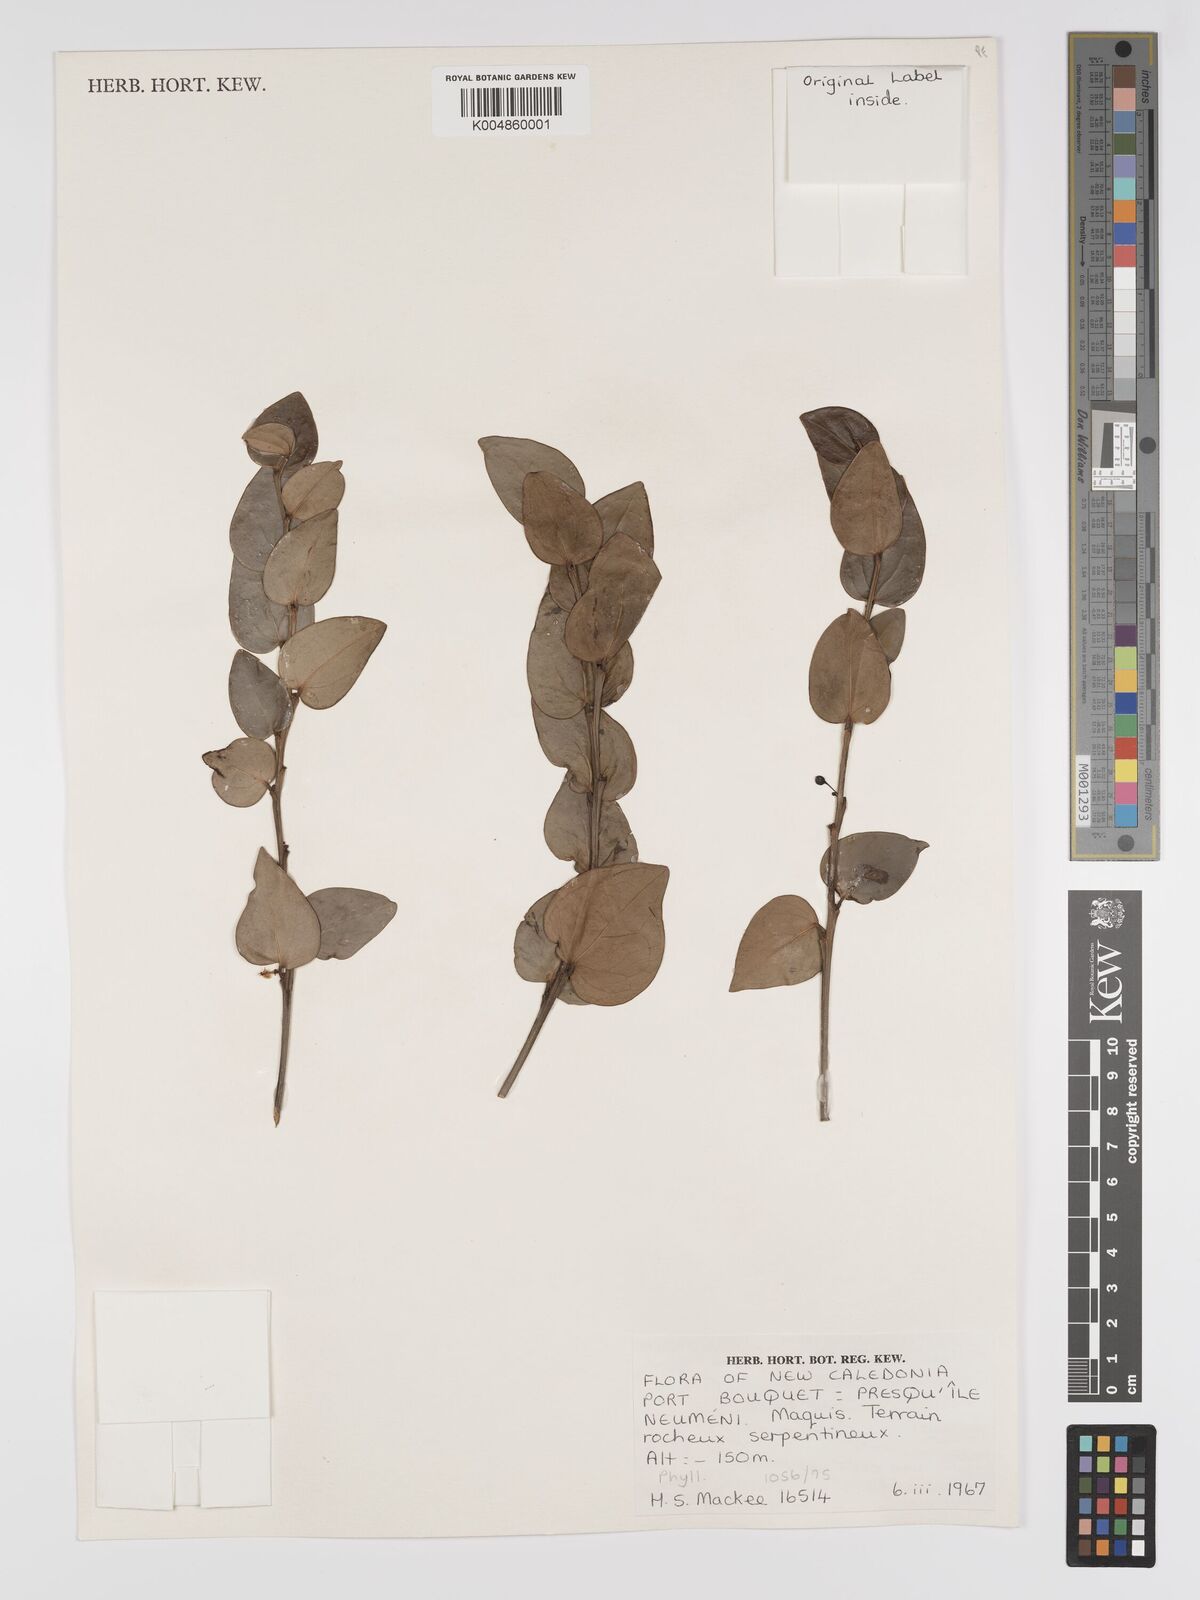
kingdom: Plantae
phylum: Tracheophyta
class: Magnoliopsida
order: Malpighiales
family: Phyllanthaceae
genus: Phyllanthus
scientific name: Phyllanthus
